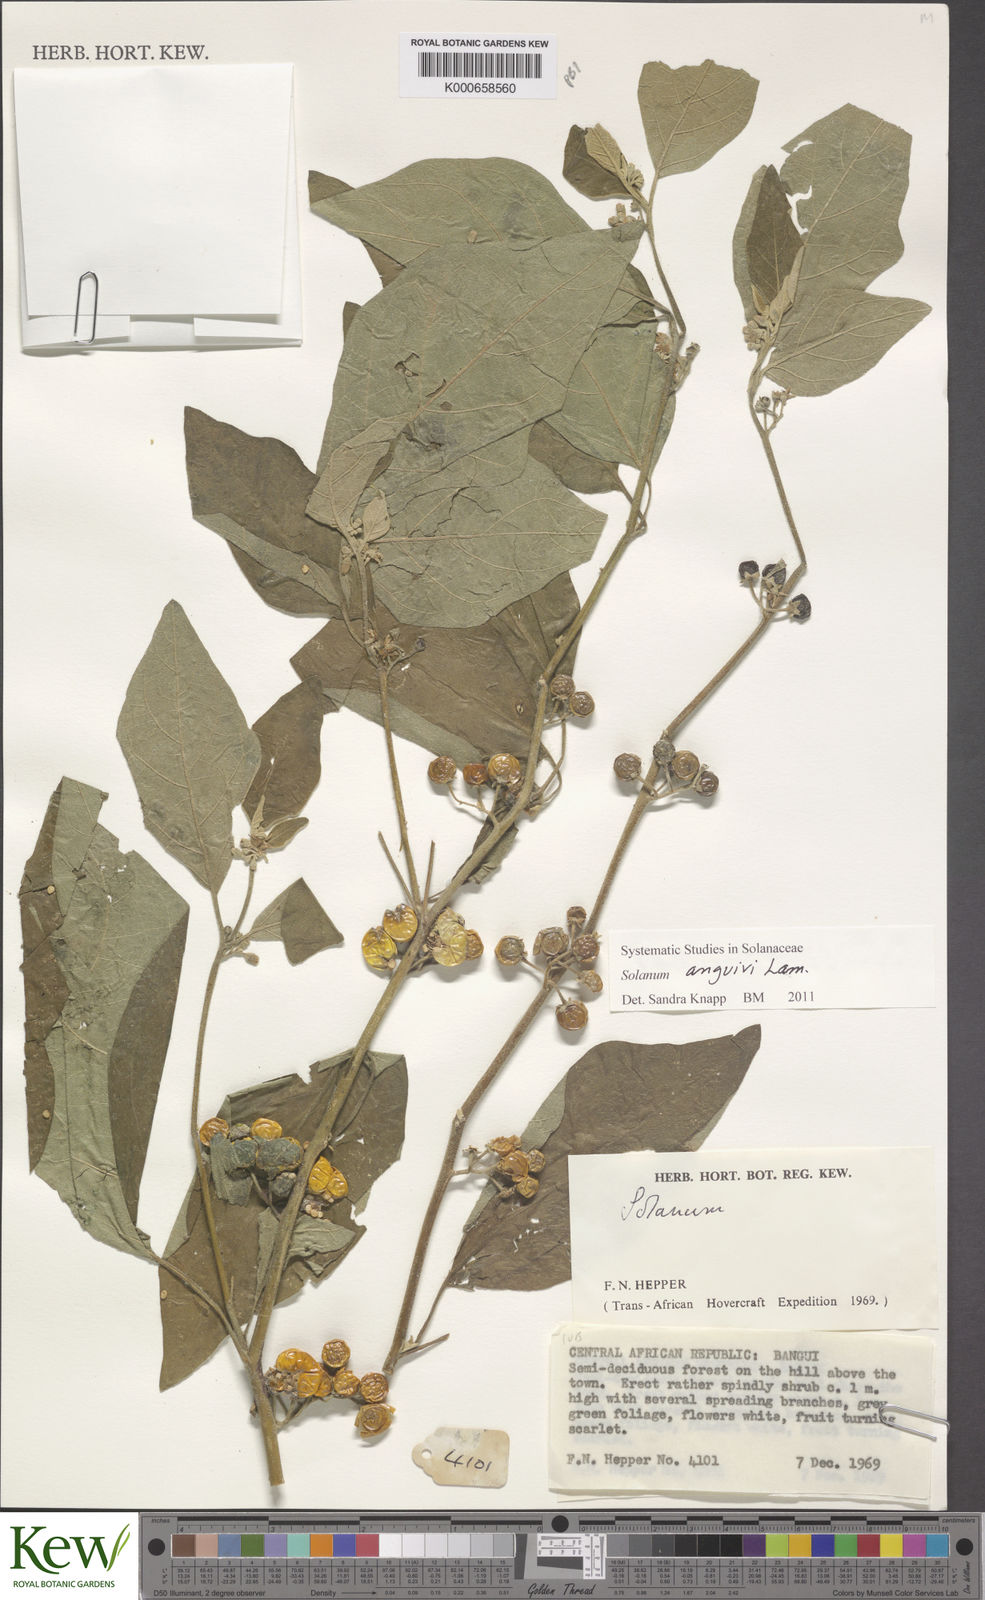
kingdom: Plantae
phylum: Tracheophyta
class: Magnoliopsida
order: Solanales
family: Solanaceae
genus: Solanum
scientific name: Solanum anguivi
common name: Forest bitterberry
